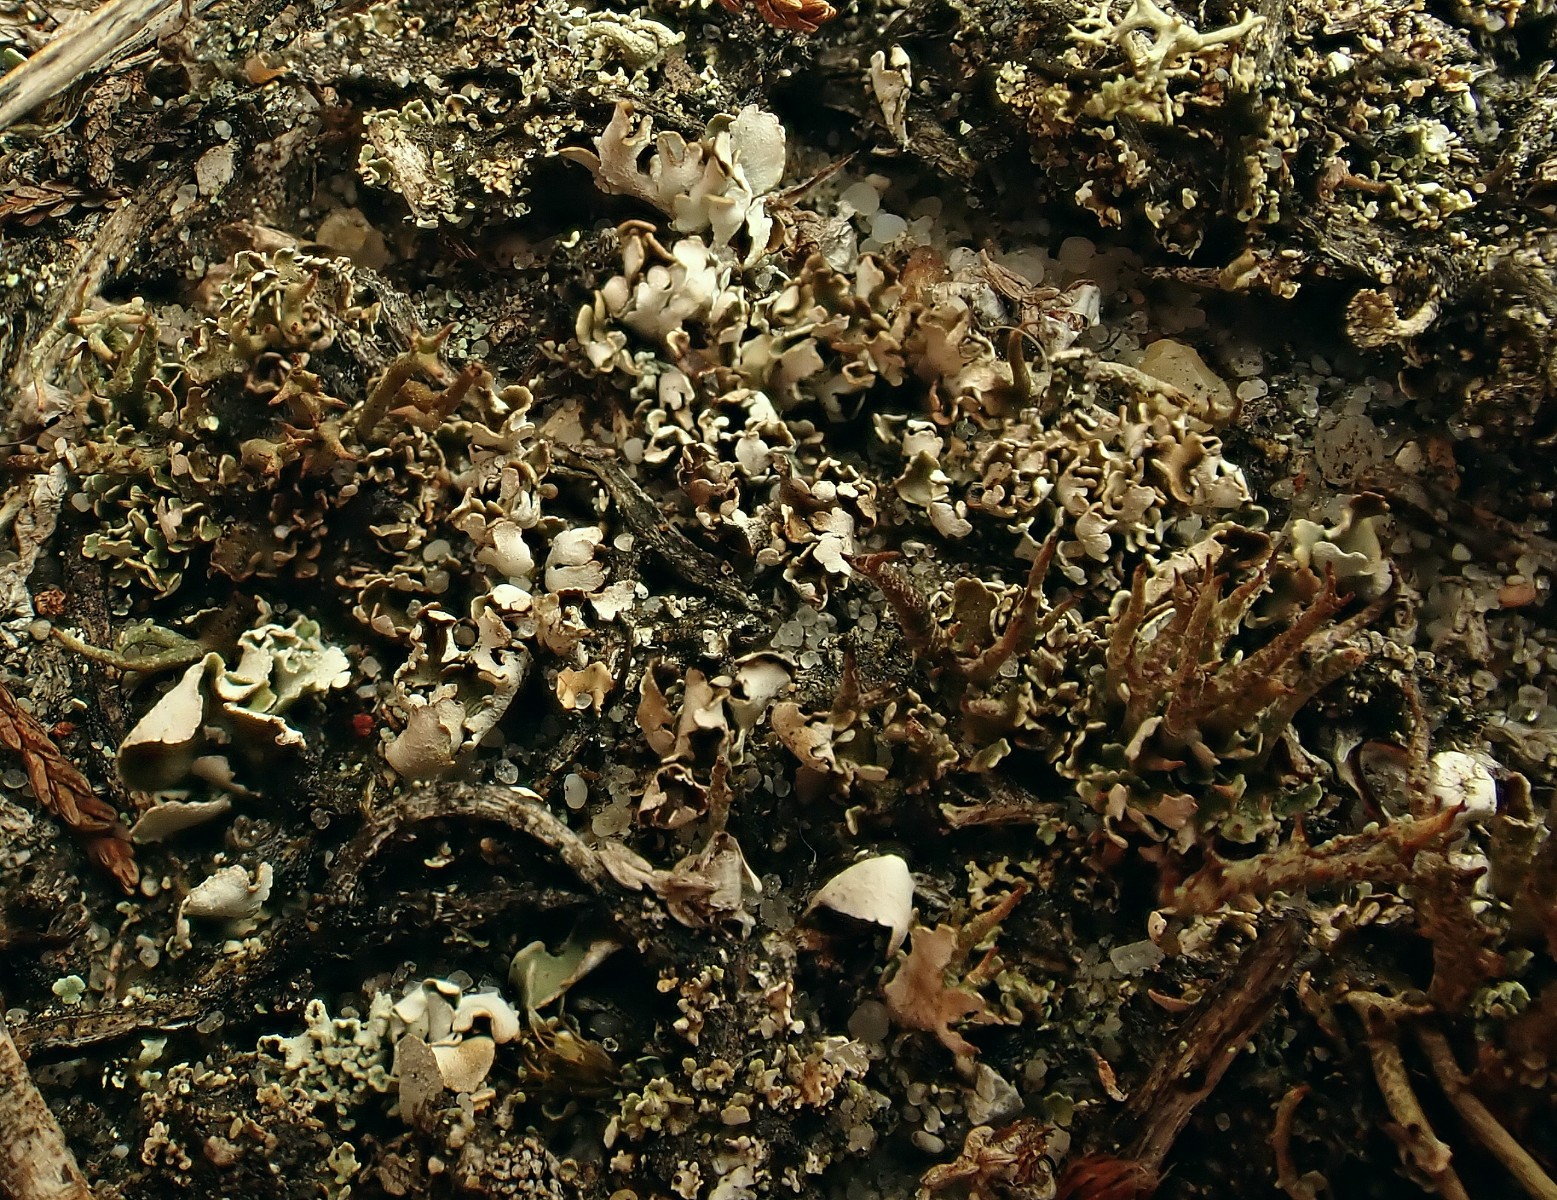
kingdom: Fungi
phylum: Ascomycota
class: Lecanoromycetes
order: Lecanorales
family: Cladoniaceae
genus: Cladonia
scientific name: Cladonia foliacea
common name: fliget bægerlav
